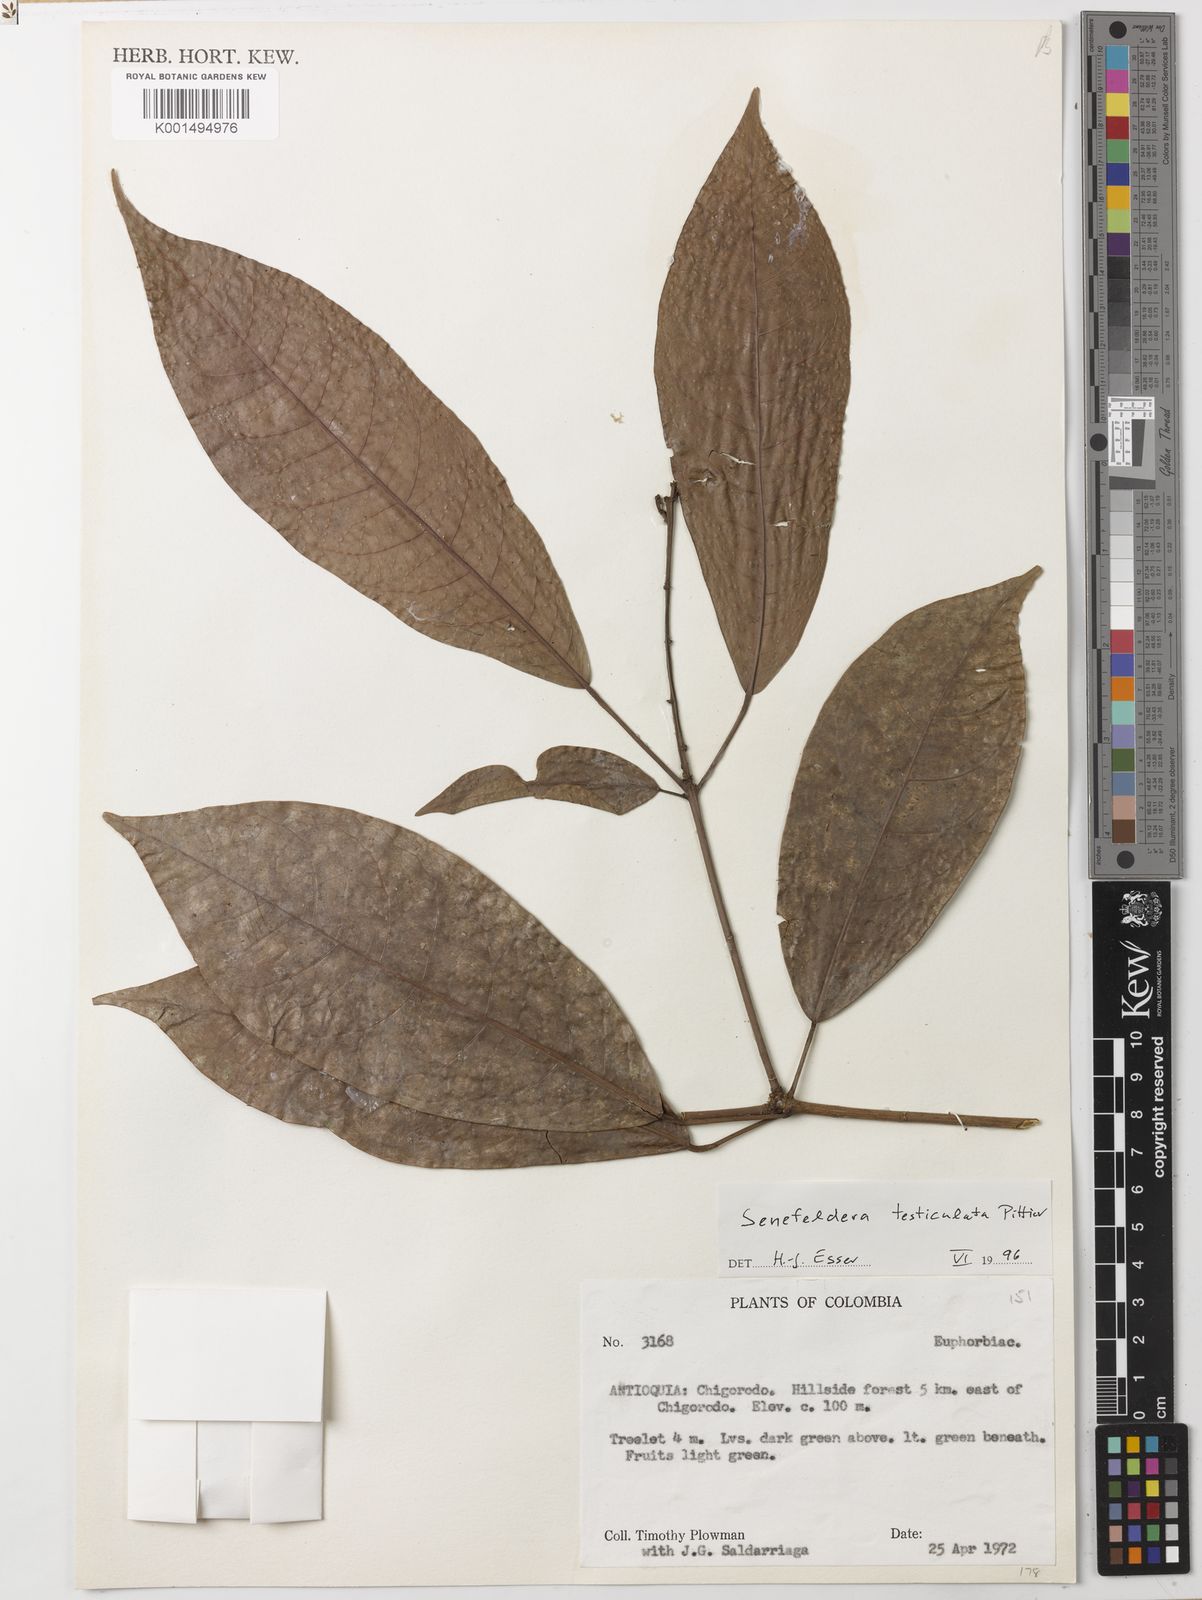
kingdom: Plantae
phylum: Tracheophyta
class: Magnoliopsida
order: Malpighiales
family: Euphorbiaceae
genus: Senefeldera
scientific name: Senefeldera testiculata
